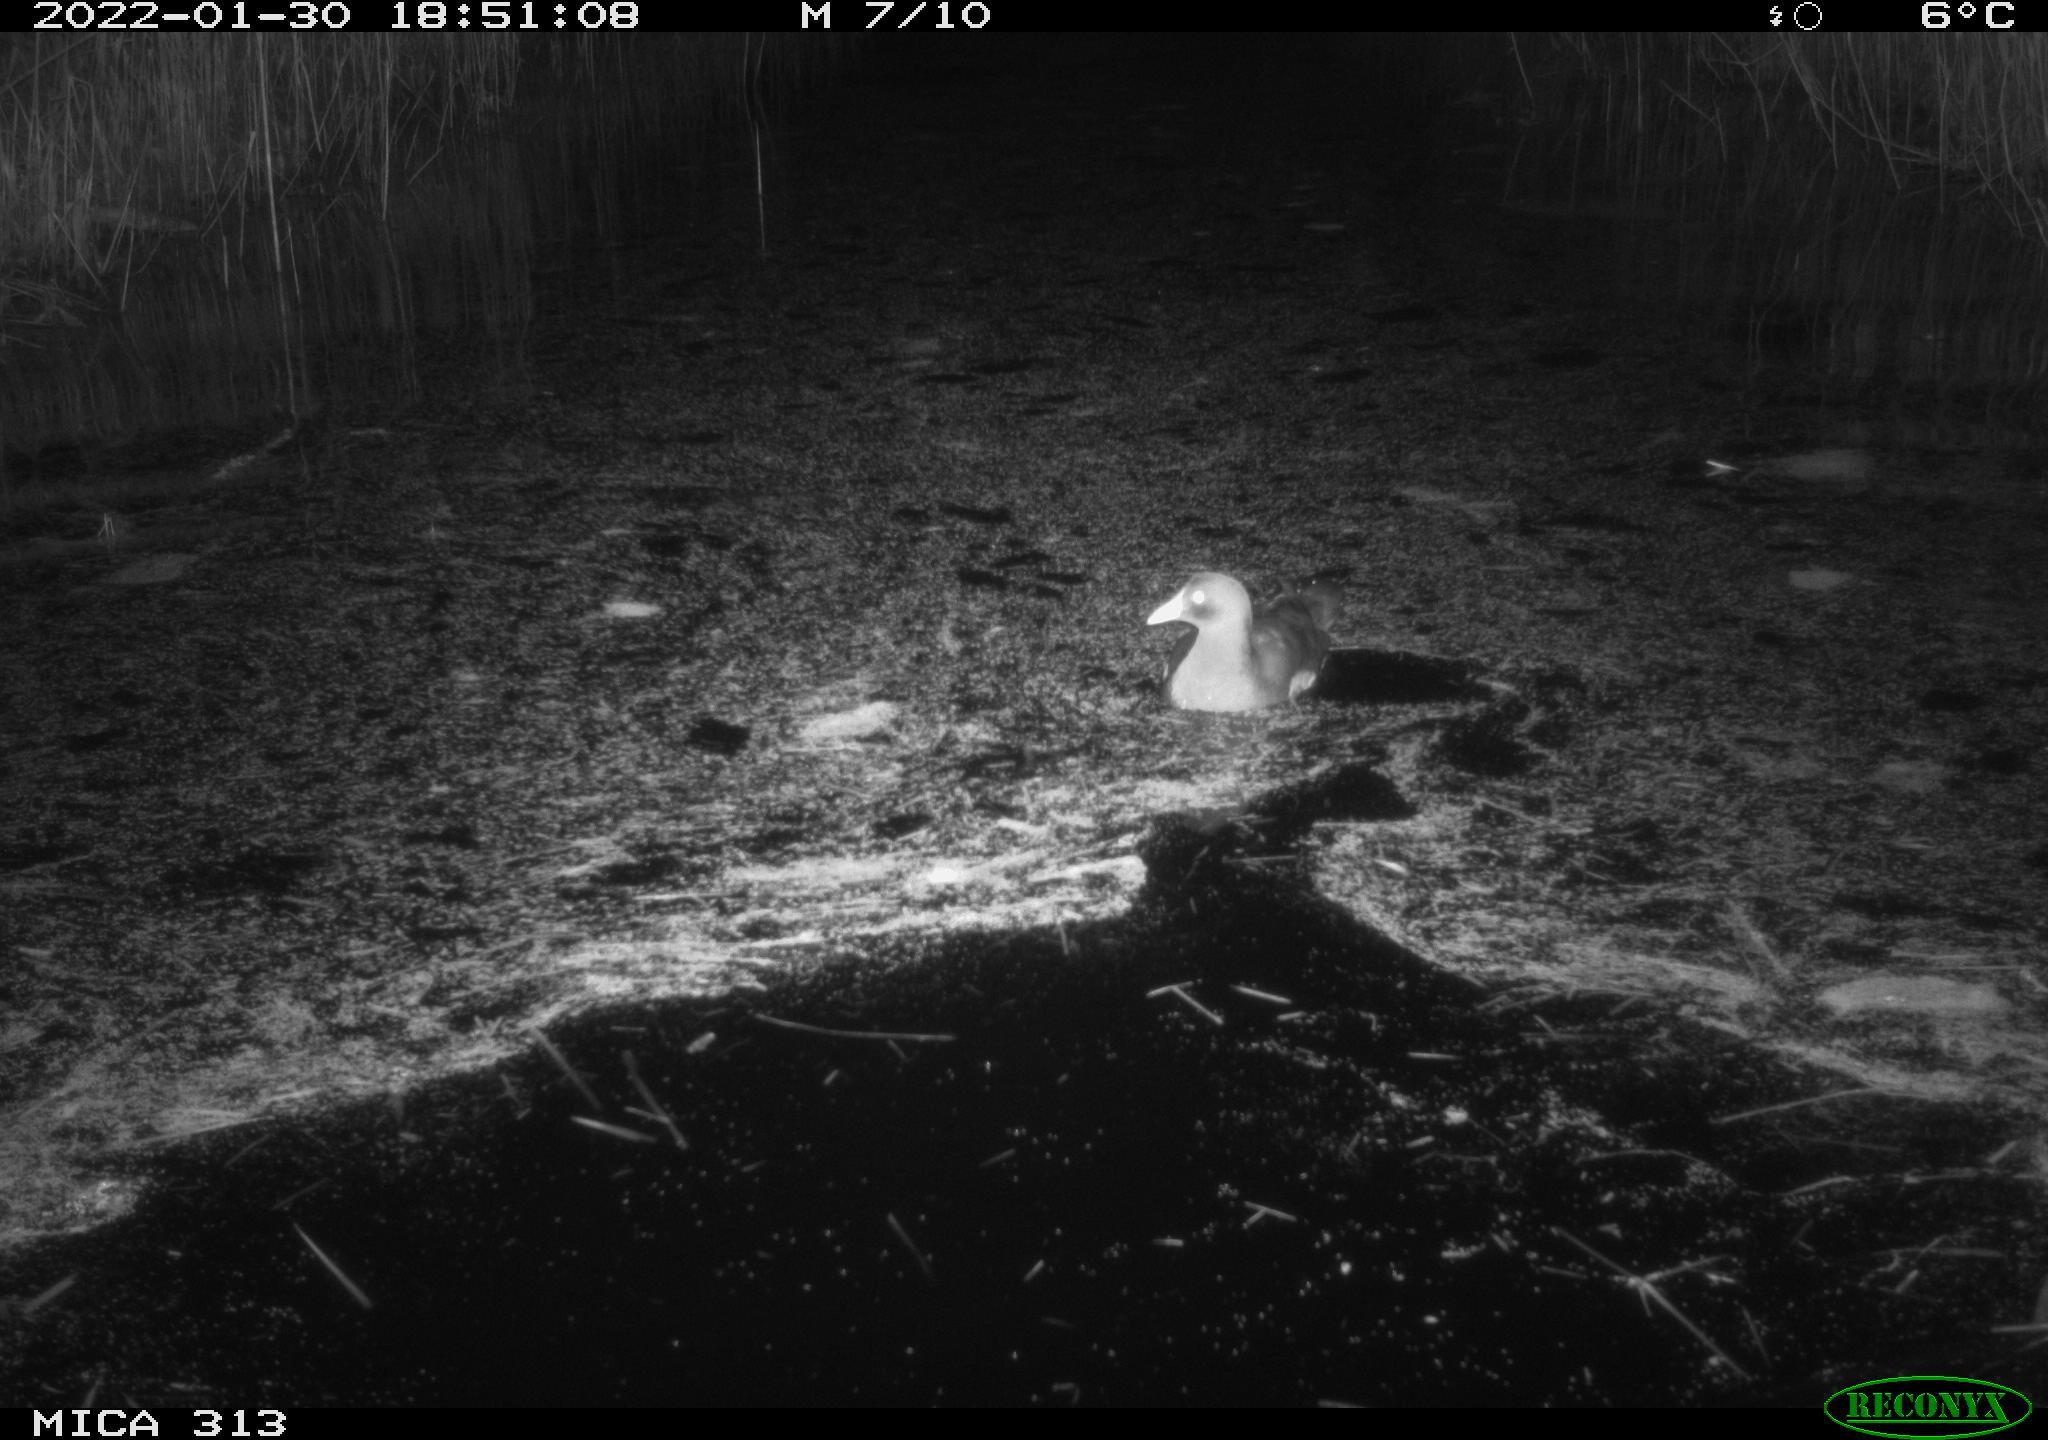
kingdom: Animalia
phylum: Chordata
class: Aves
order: Anseriformes
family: Anatidae
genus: Anas
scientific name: Anas
